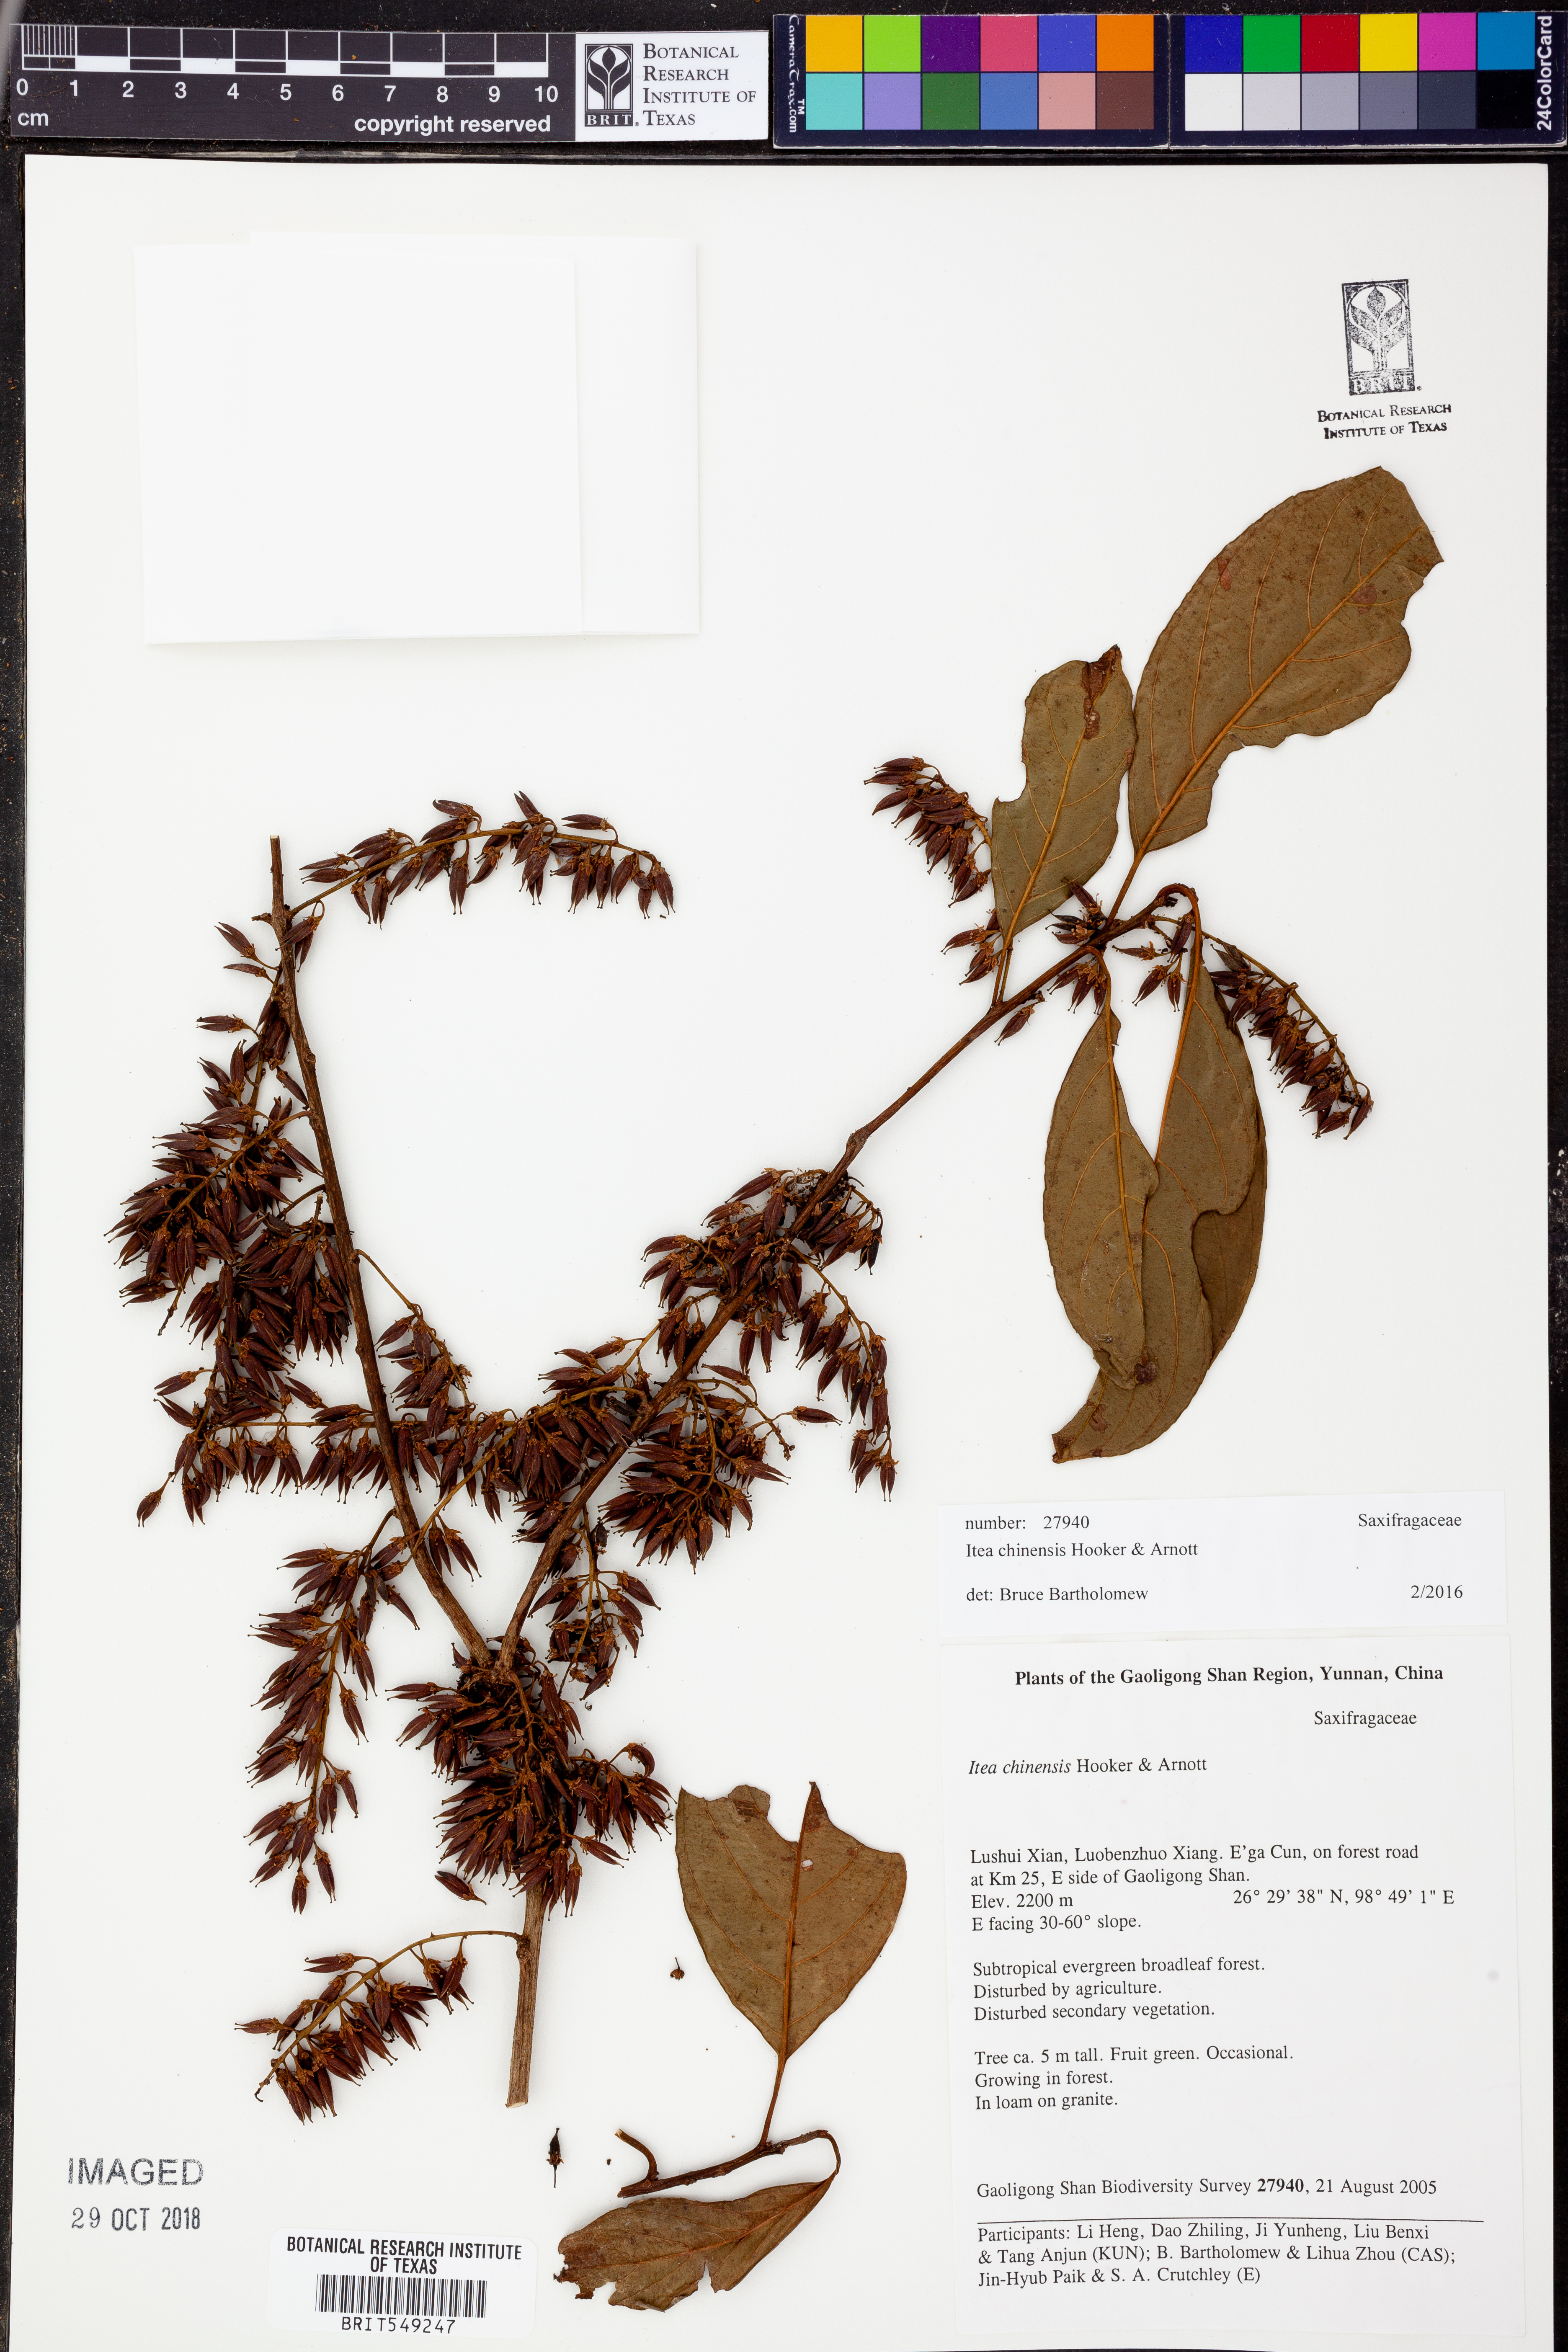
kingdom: Plantae
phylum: Tracheophyta
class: Magnoliopsida
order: Saxifragales
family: Iteaceae
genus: Itea
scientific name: Itea chinensis
